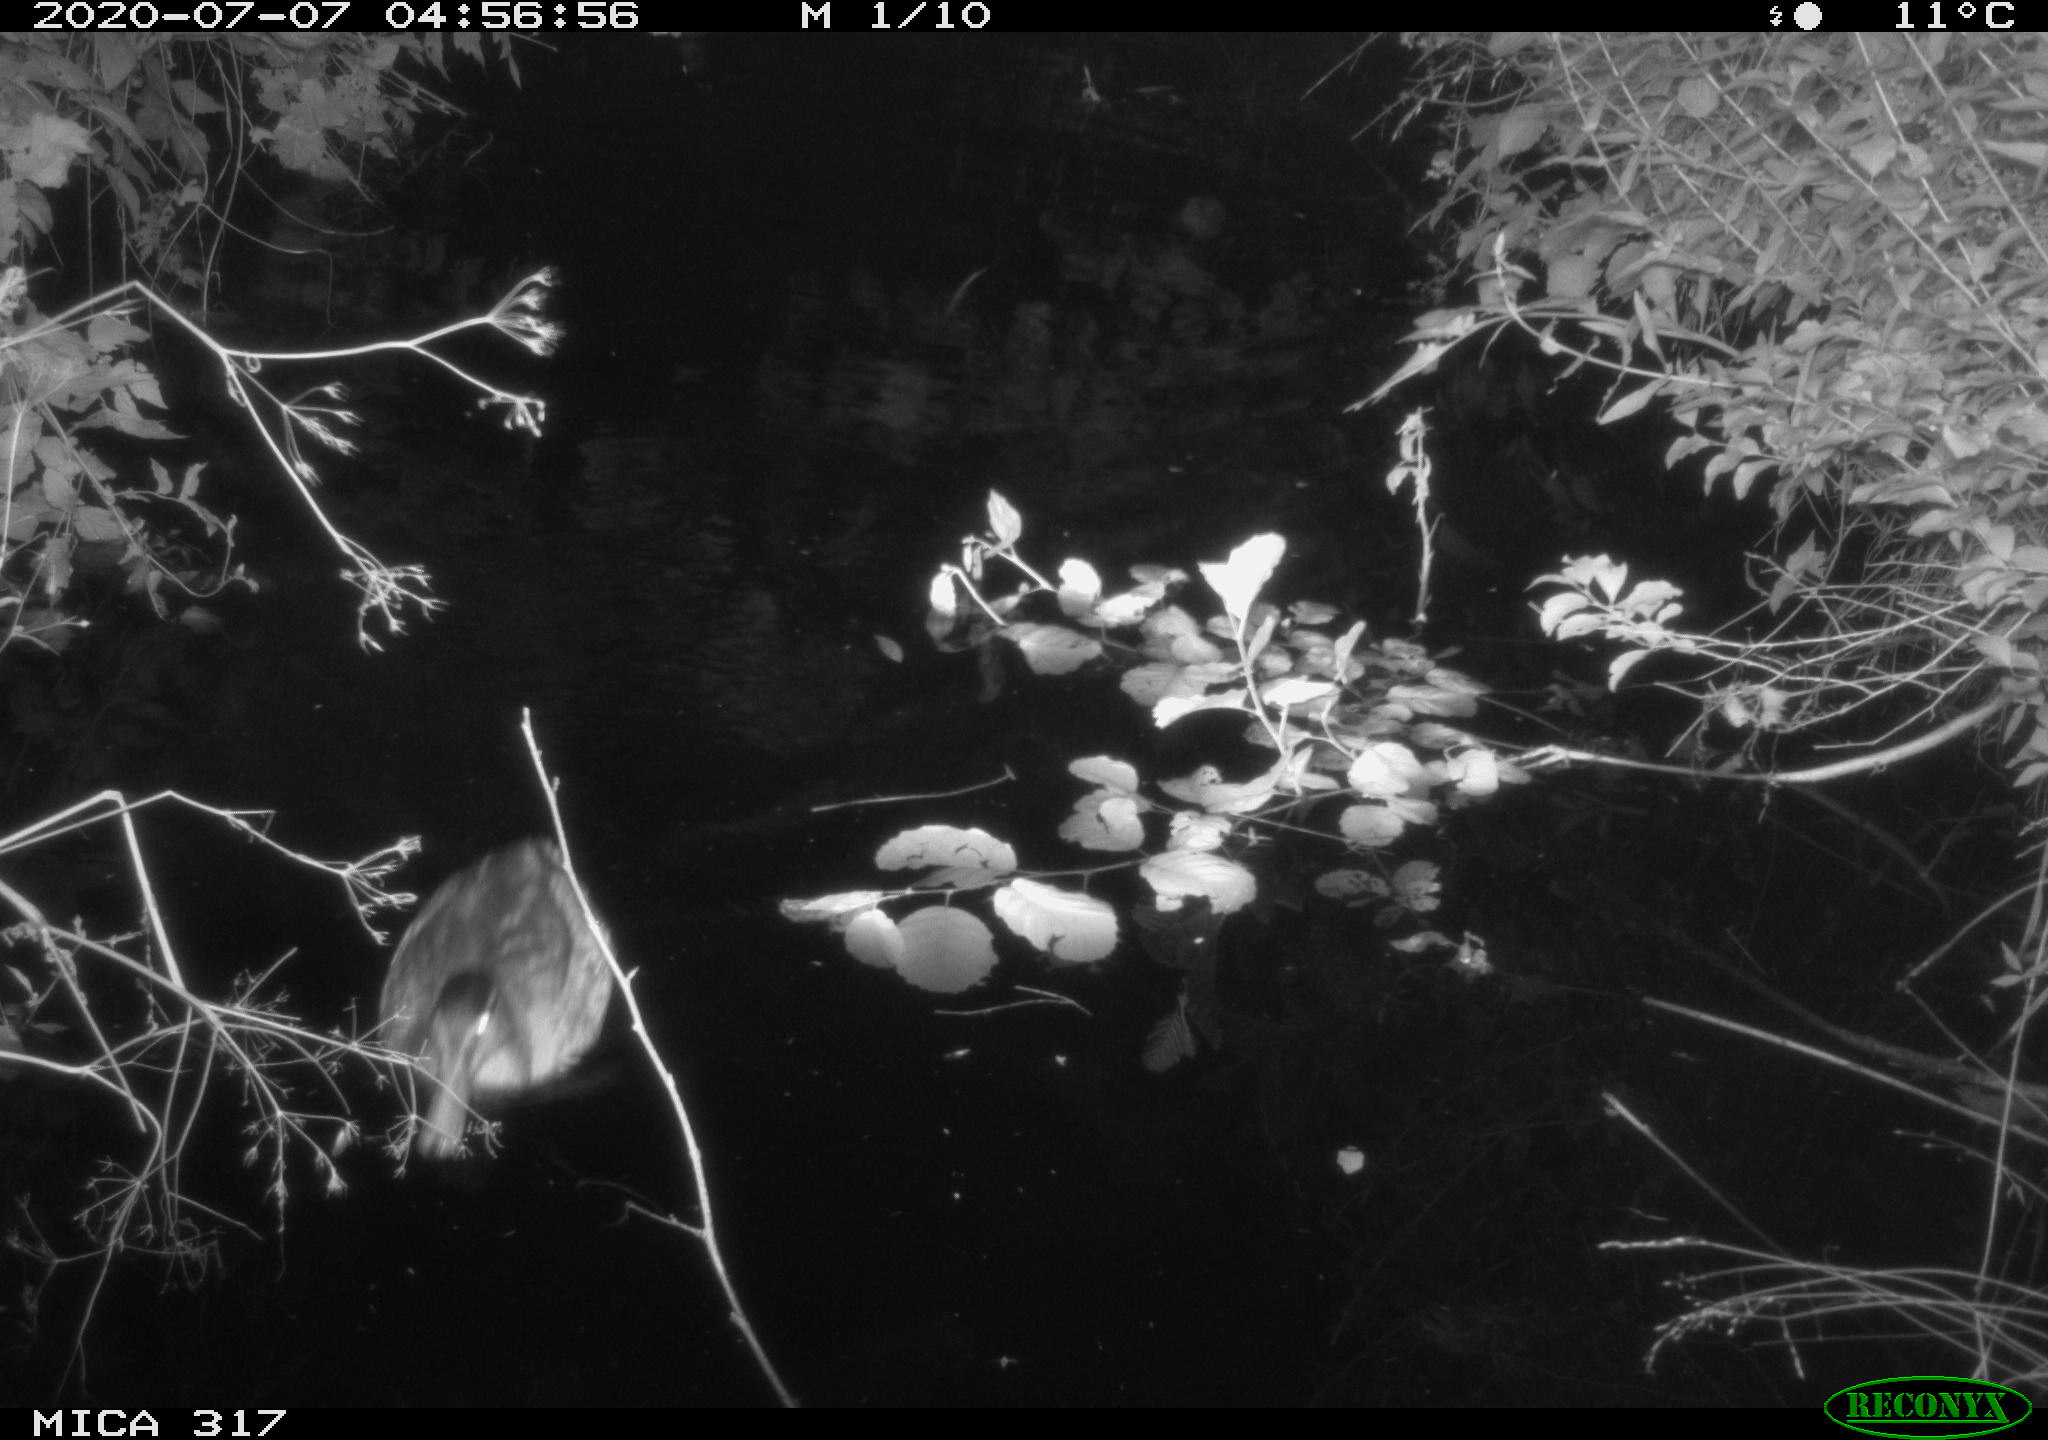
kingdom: Animalia
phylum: Chordata
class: Aves
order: Anseriformes
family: Anatidae
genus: Aix
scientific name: Aix galericulata
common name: Mandarin duck
